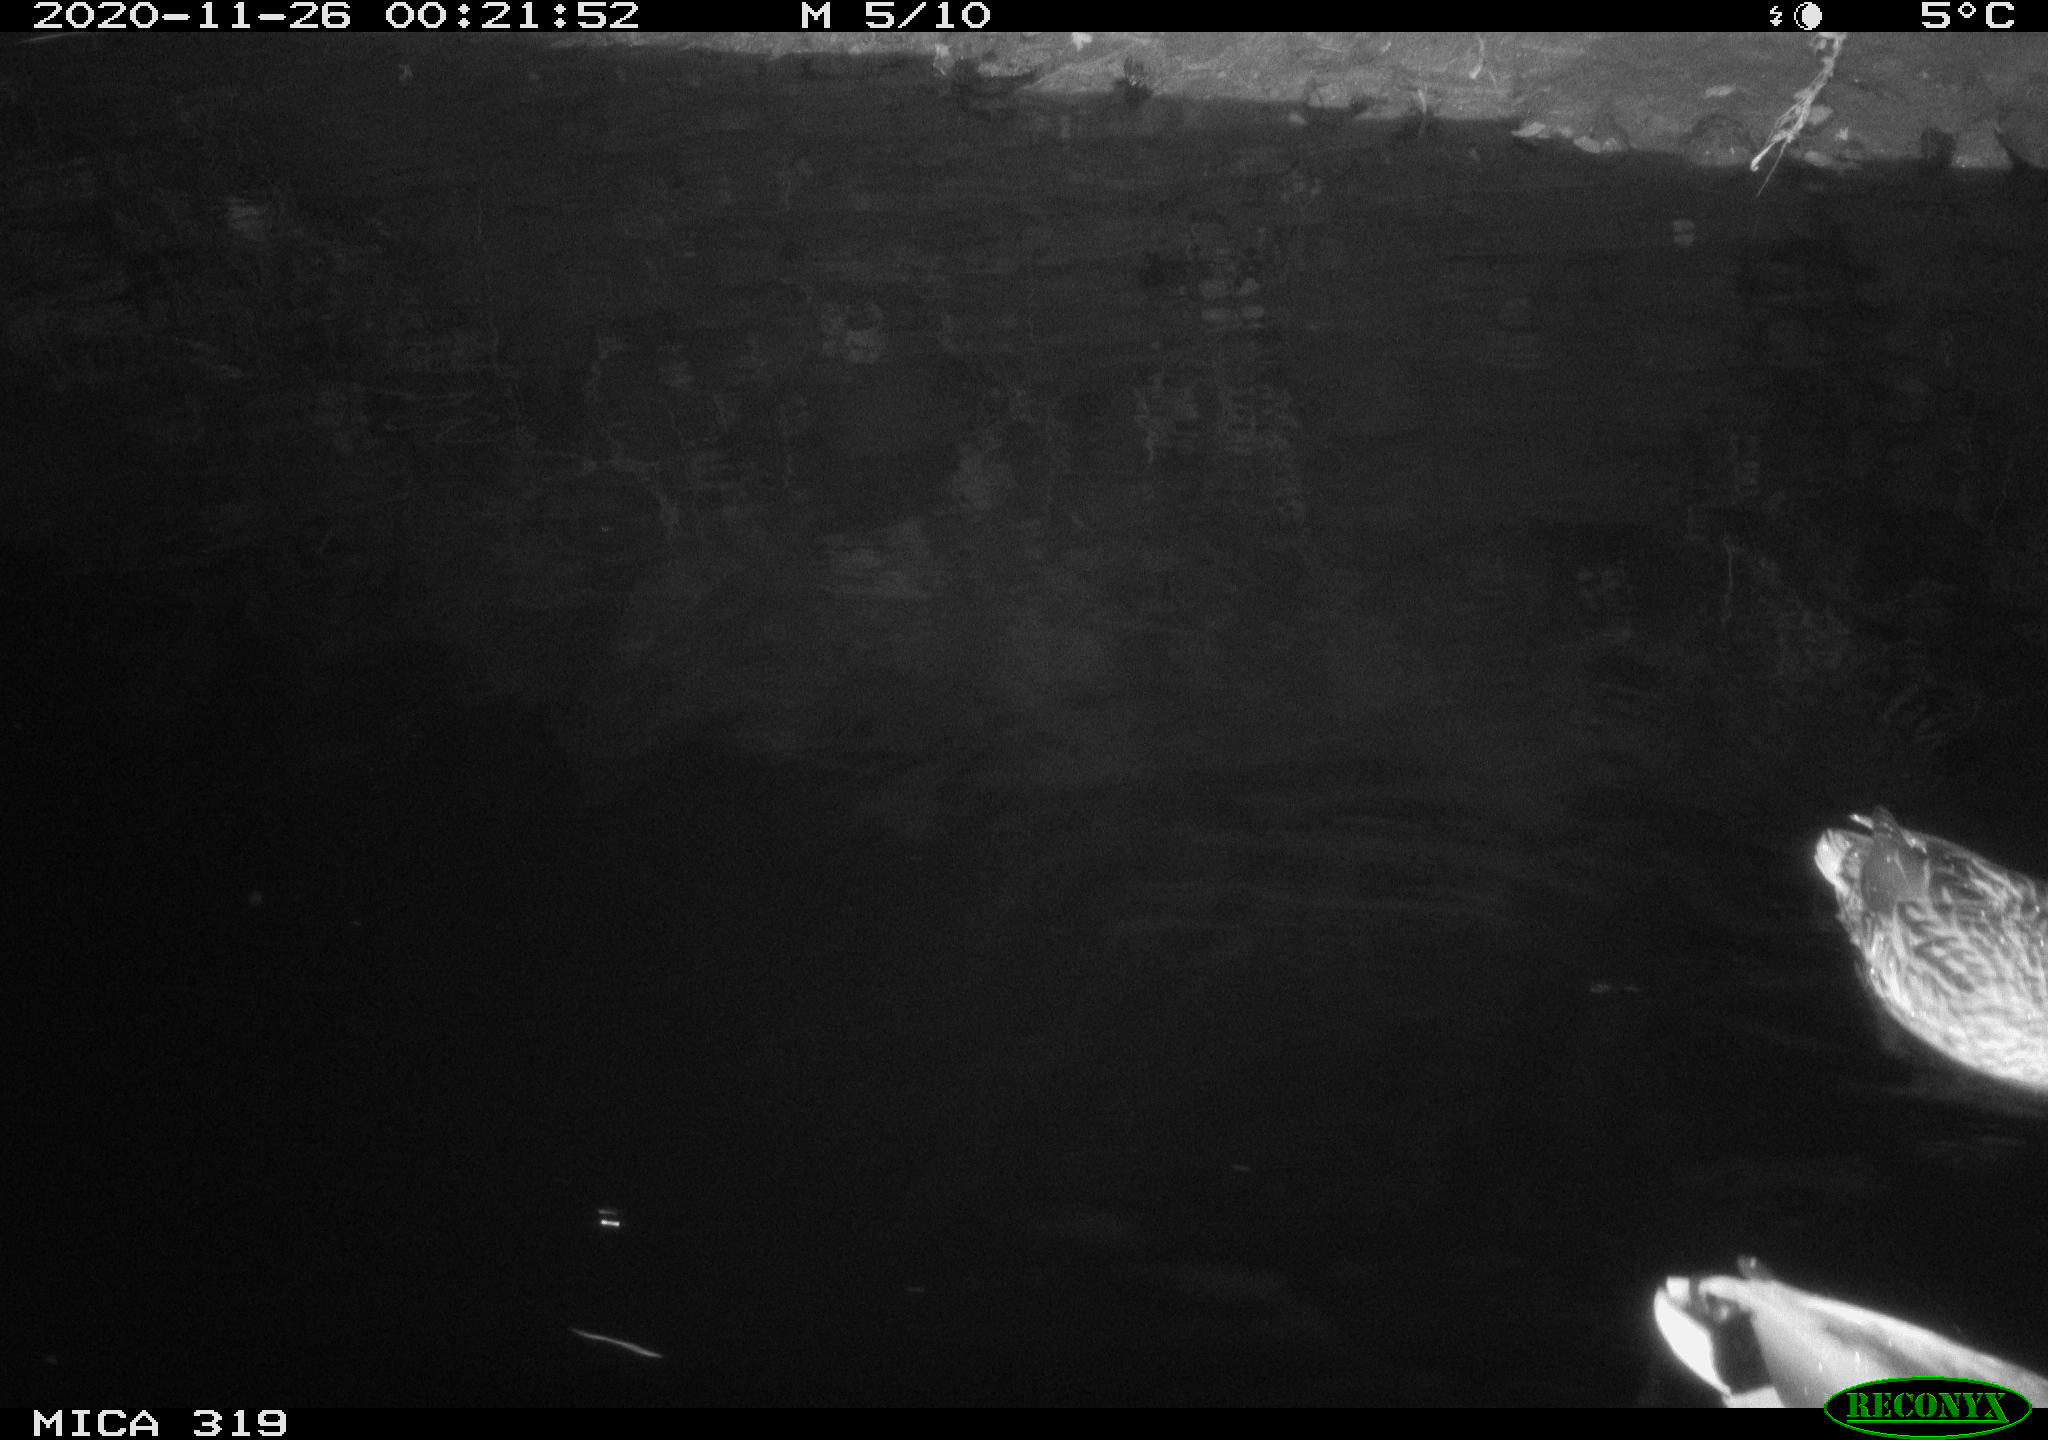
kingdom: Animalia
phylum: Chordata
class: Aves
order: Anseriformes
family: Anatidae
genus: Anas
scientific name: Anas platyrhynchos
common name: Mallard
